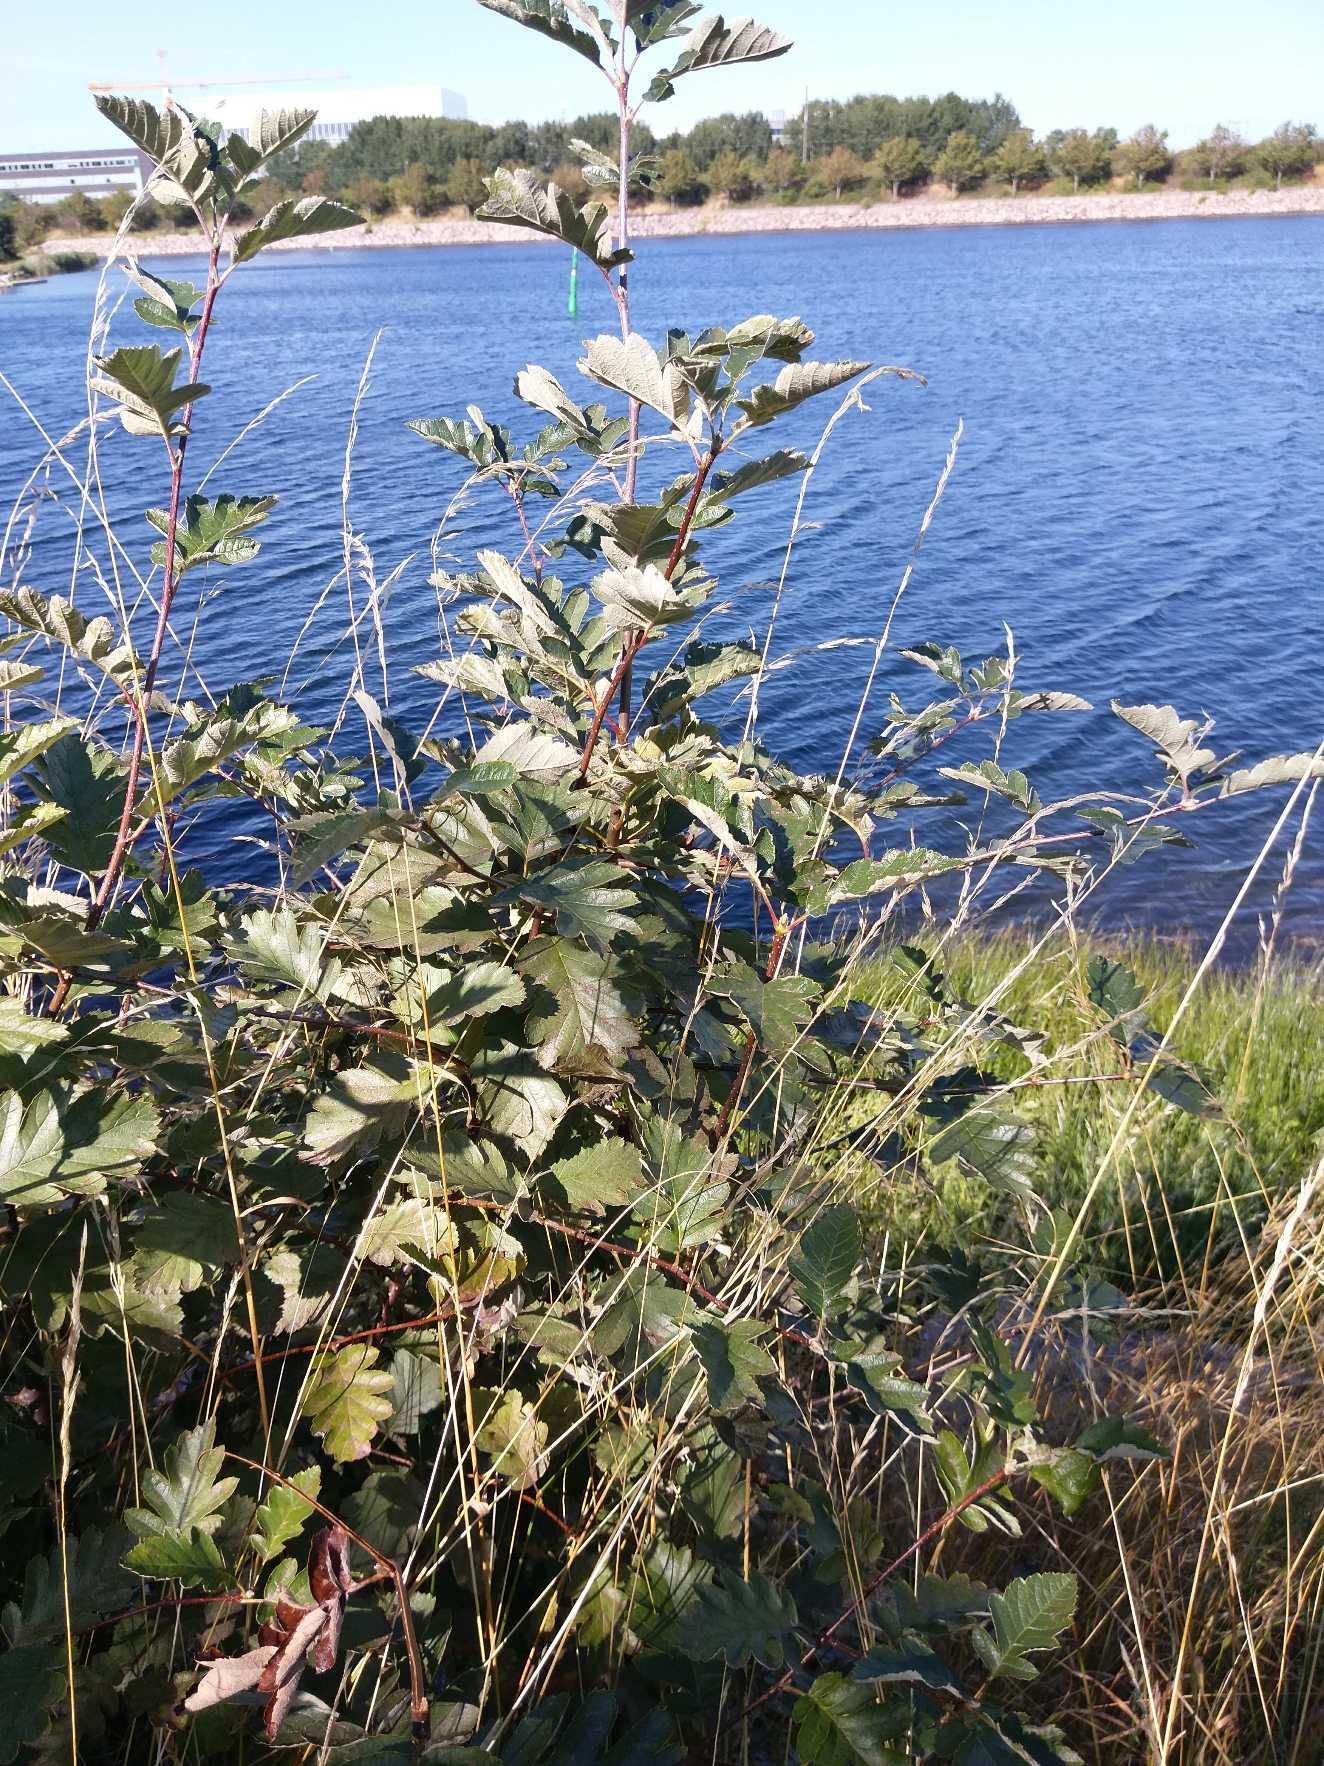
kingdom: Plantae
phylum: Tracheophyta
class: Magnoliopsida
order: Rosales
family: Rosaceae
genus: Scandosorbus
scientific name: Scandosorbus intermedia
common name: Selje-røn
